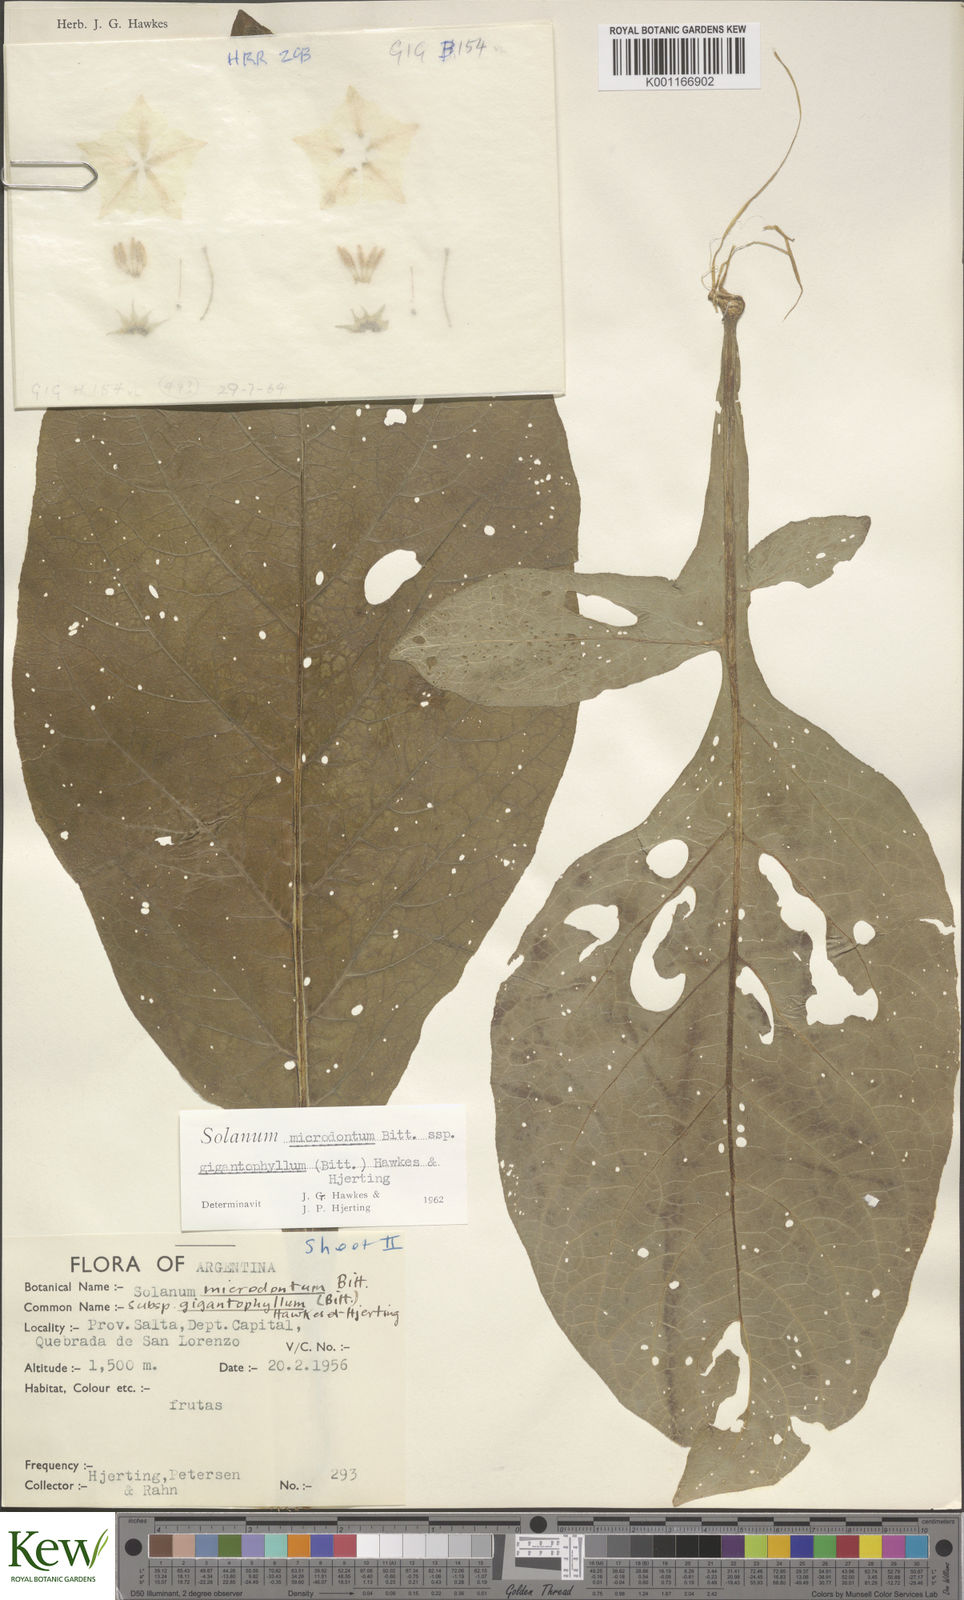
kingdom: Plantae
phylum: Tracheophyta
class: Magnoliopsida
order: Solanales
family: Solanaceae
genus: Solanum
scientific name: Solanum microdontum
